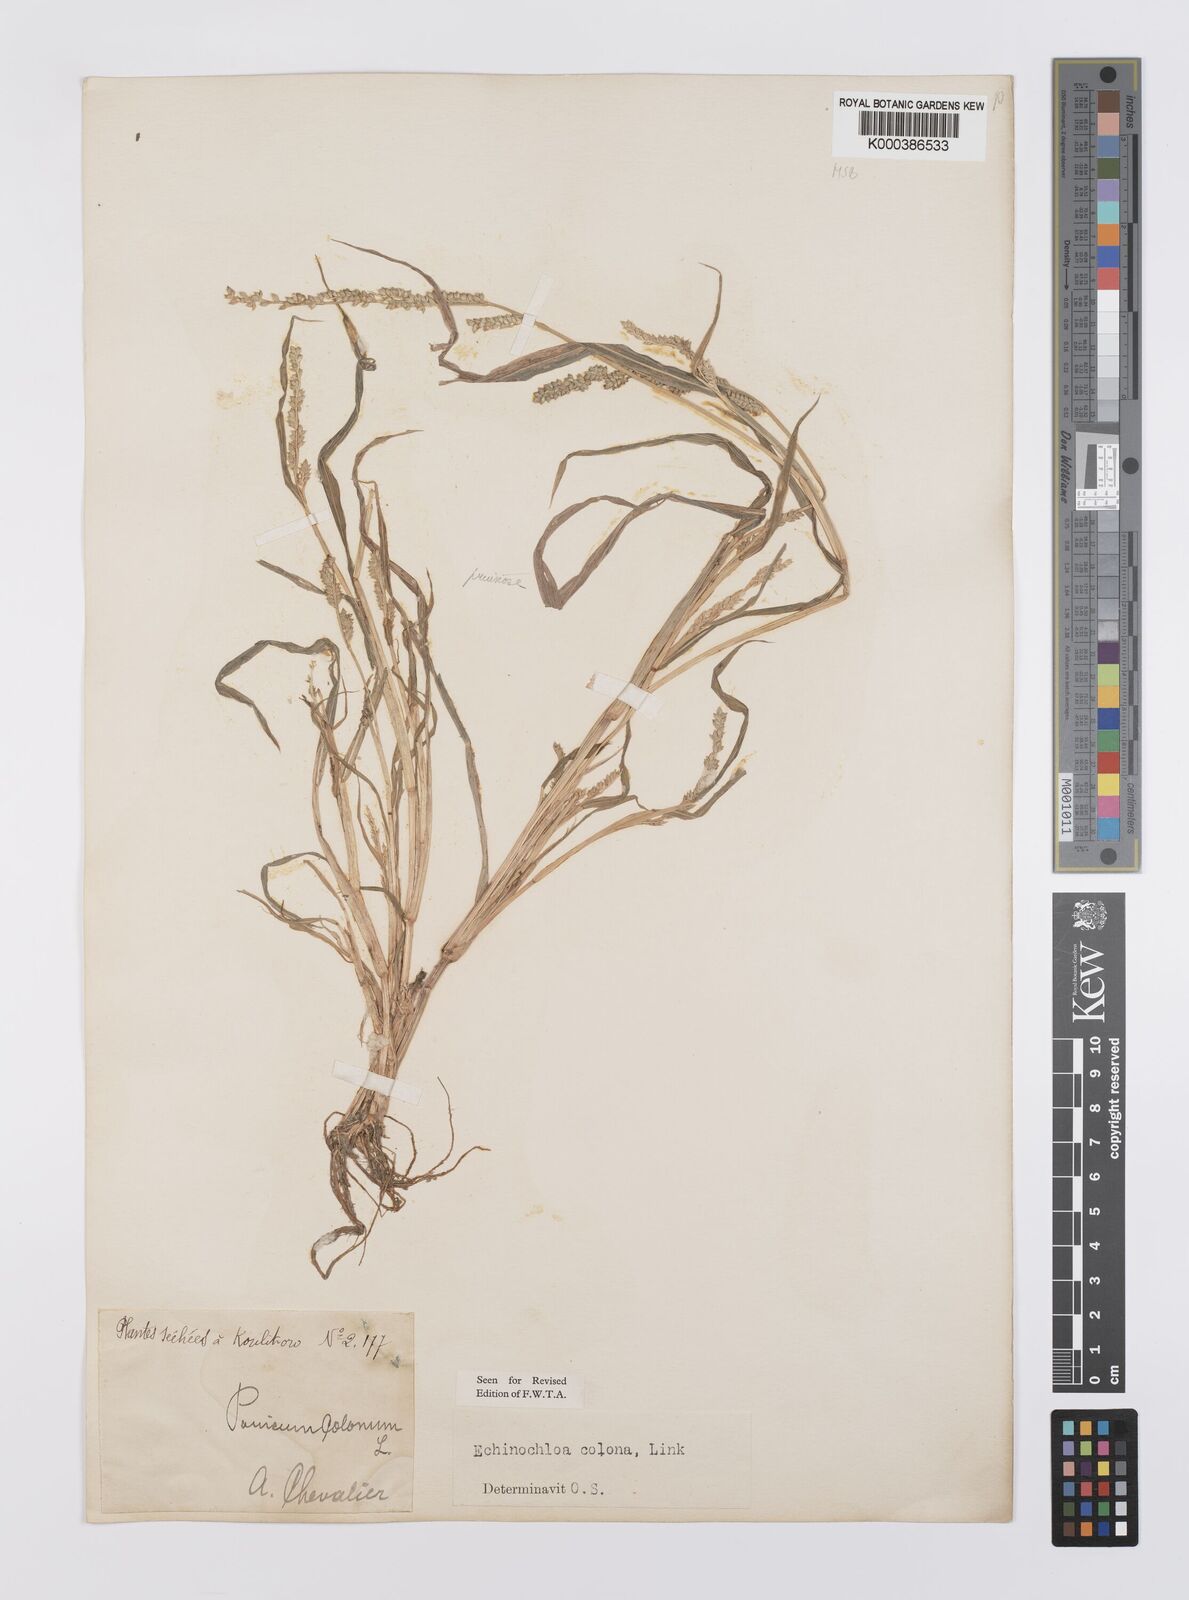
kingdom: Plantae
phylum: Tracheophyta
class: Liliopsida
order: Poales
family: Poaceae
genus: Echinochloa
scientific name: Echinochloa colonum
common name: Jungle rice
